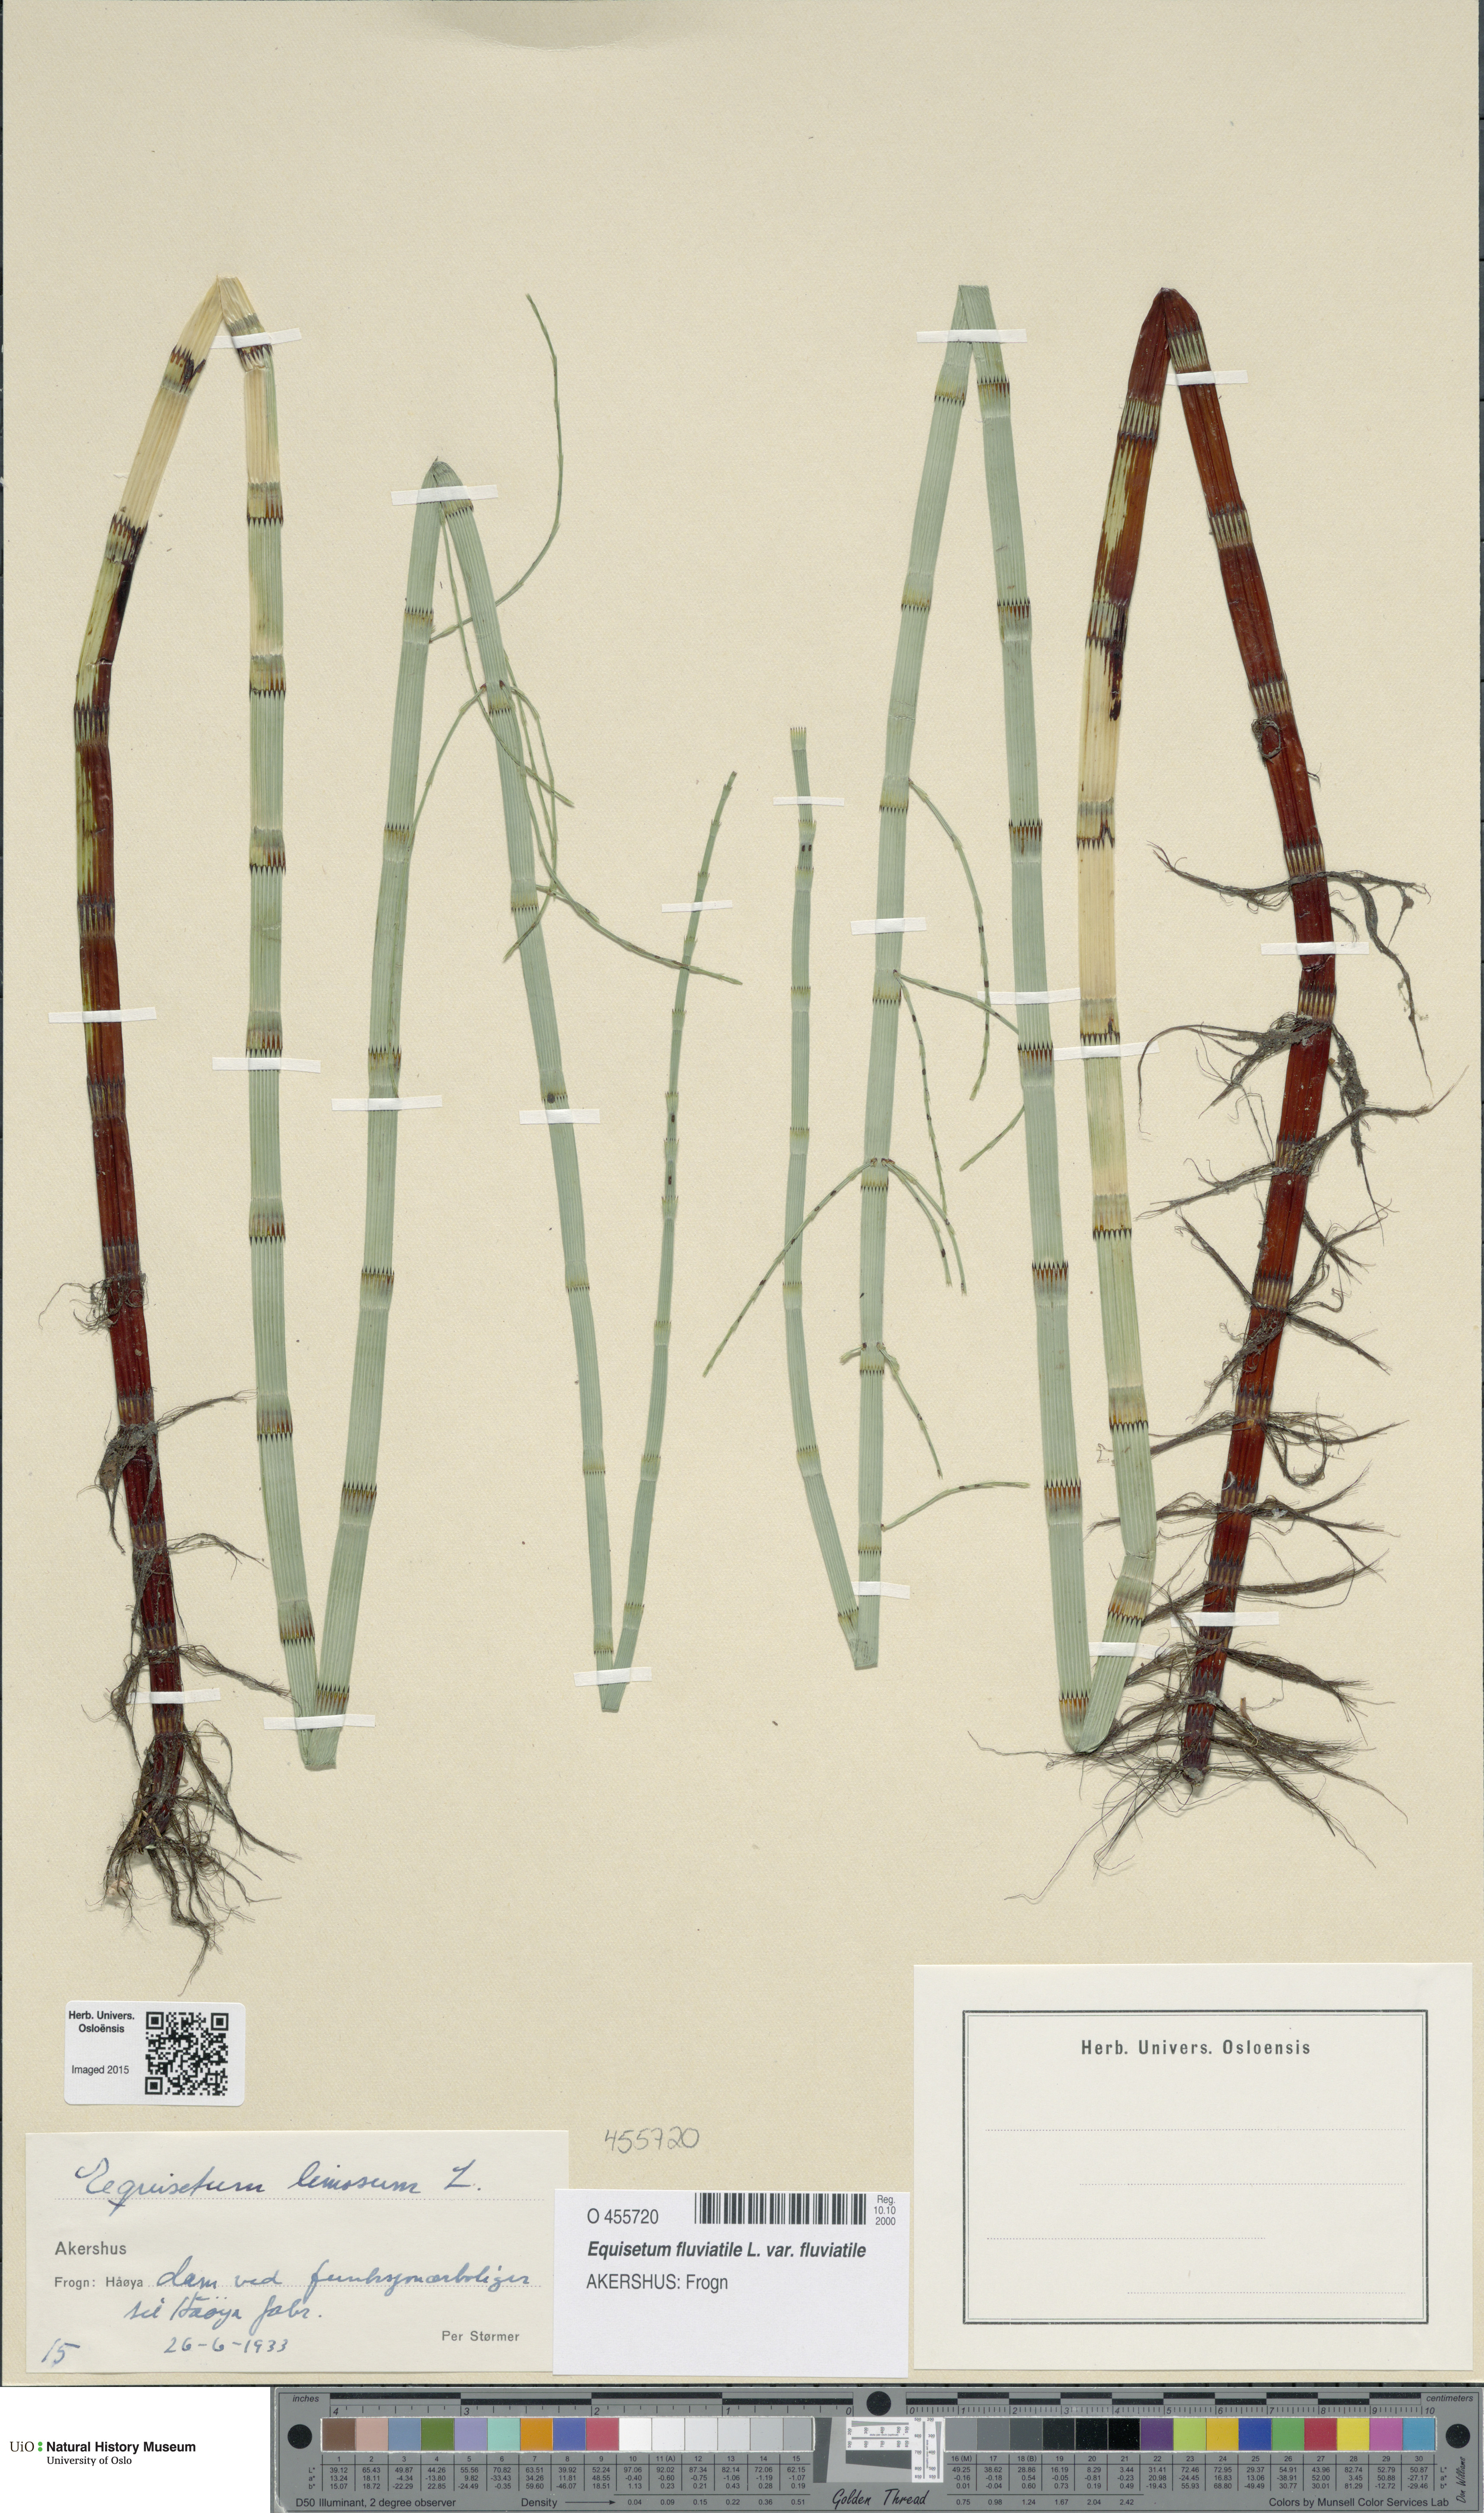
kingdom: Plantae
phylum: Tracheophyta
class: Polypodiopsida
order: Equisetales
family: Equisetaceae
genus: Equisetum
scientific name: Equisetum fluviatile
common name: Water horsetail
